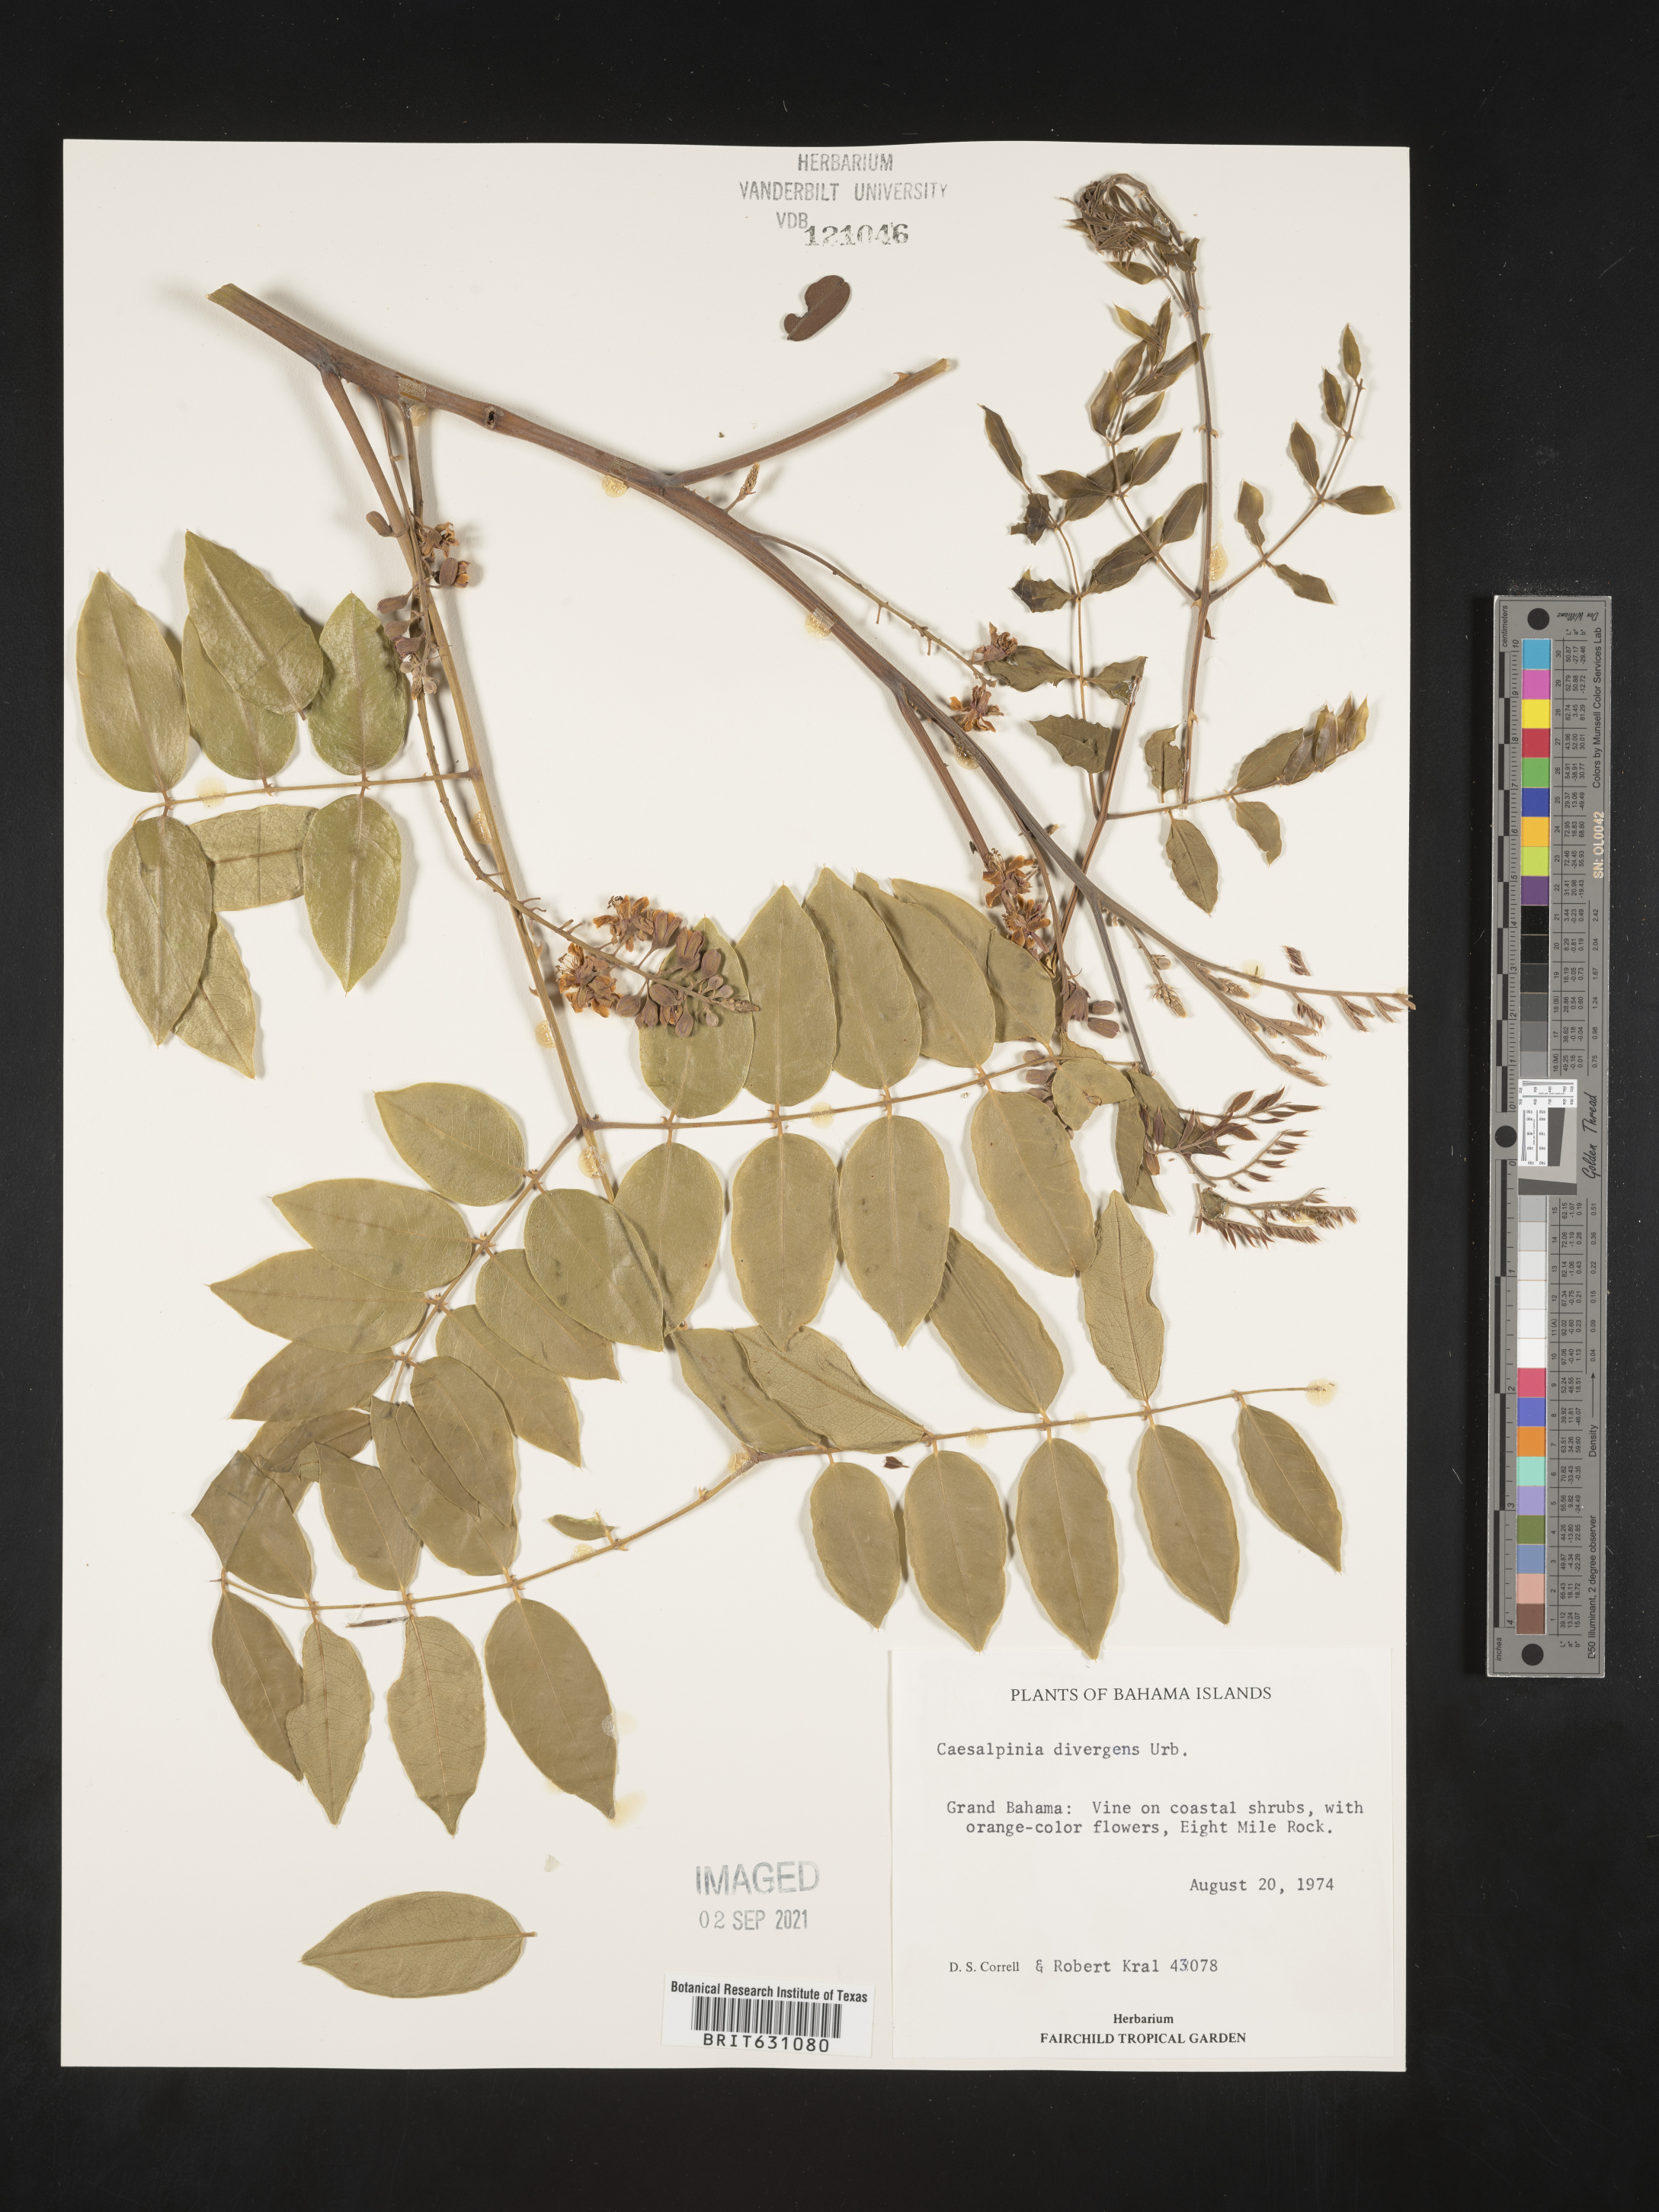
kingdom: Plantae
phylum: Tracheophyta
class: Magnoliopsida
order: Fabales
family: Fabaceae
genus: Caesalpinia
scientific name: Caesalpinia
